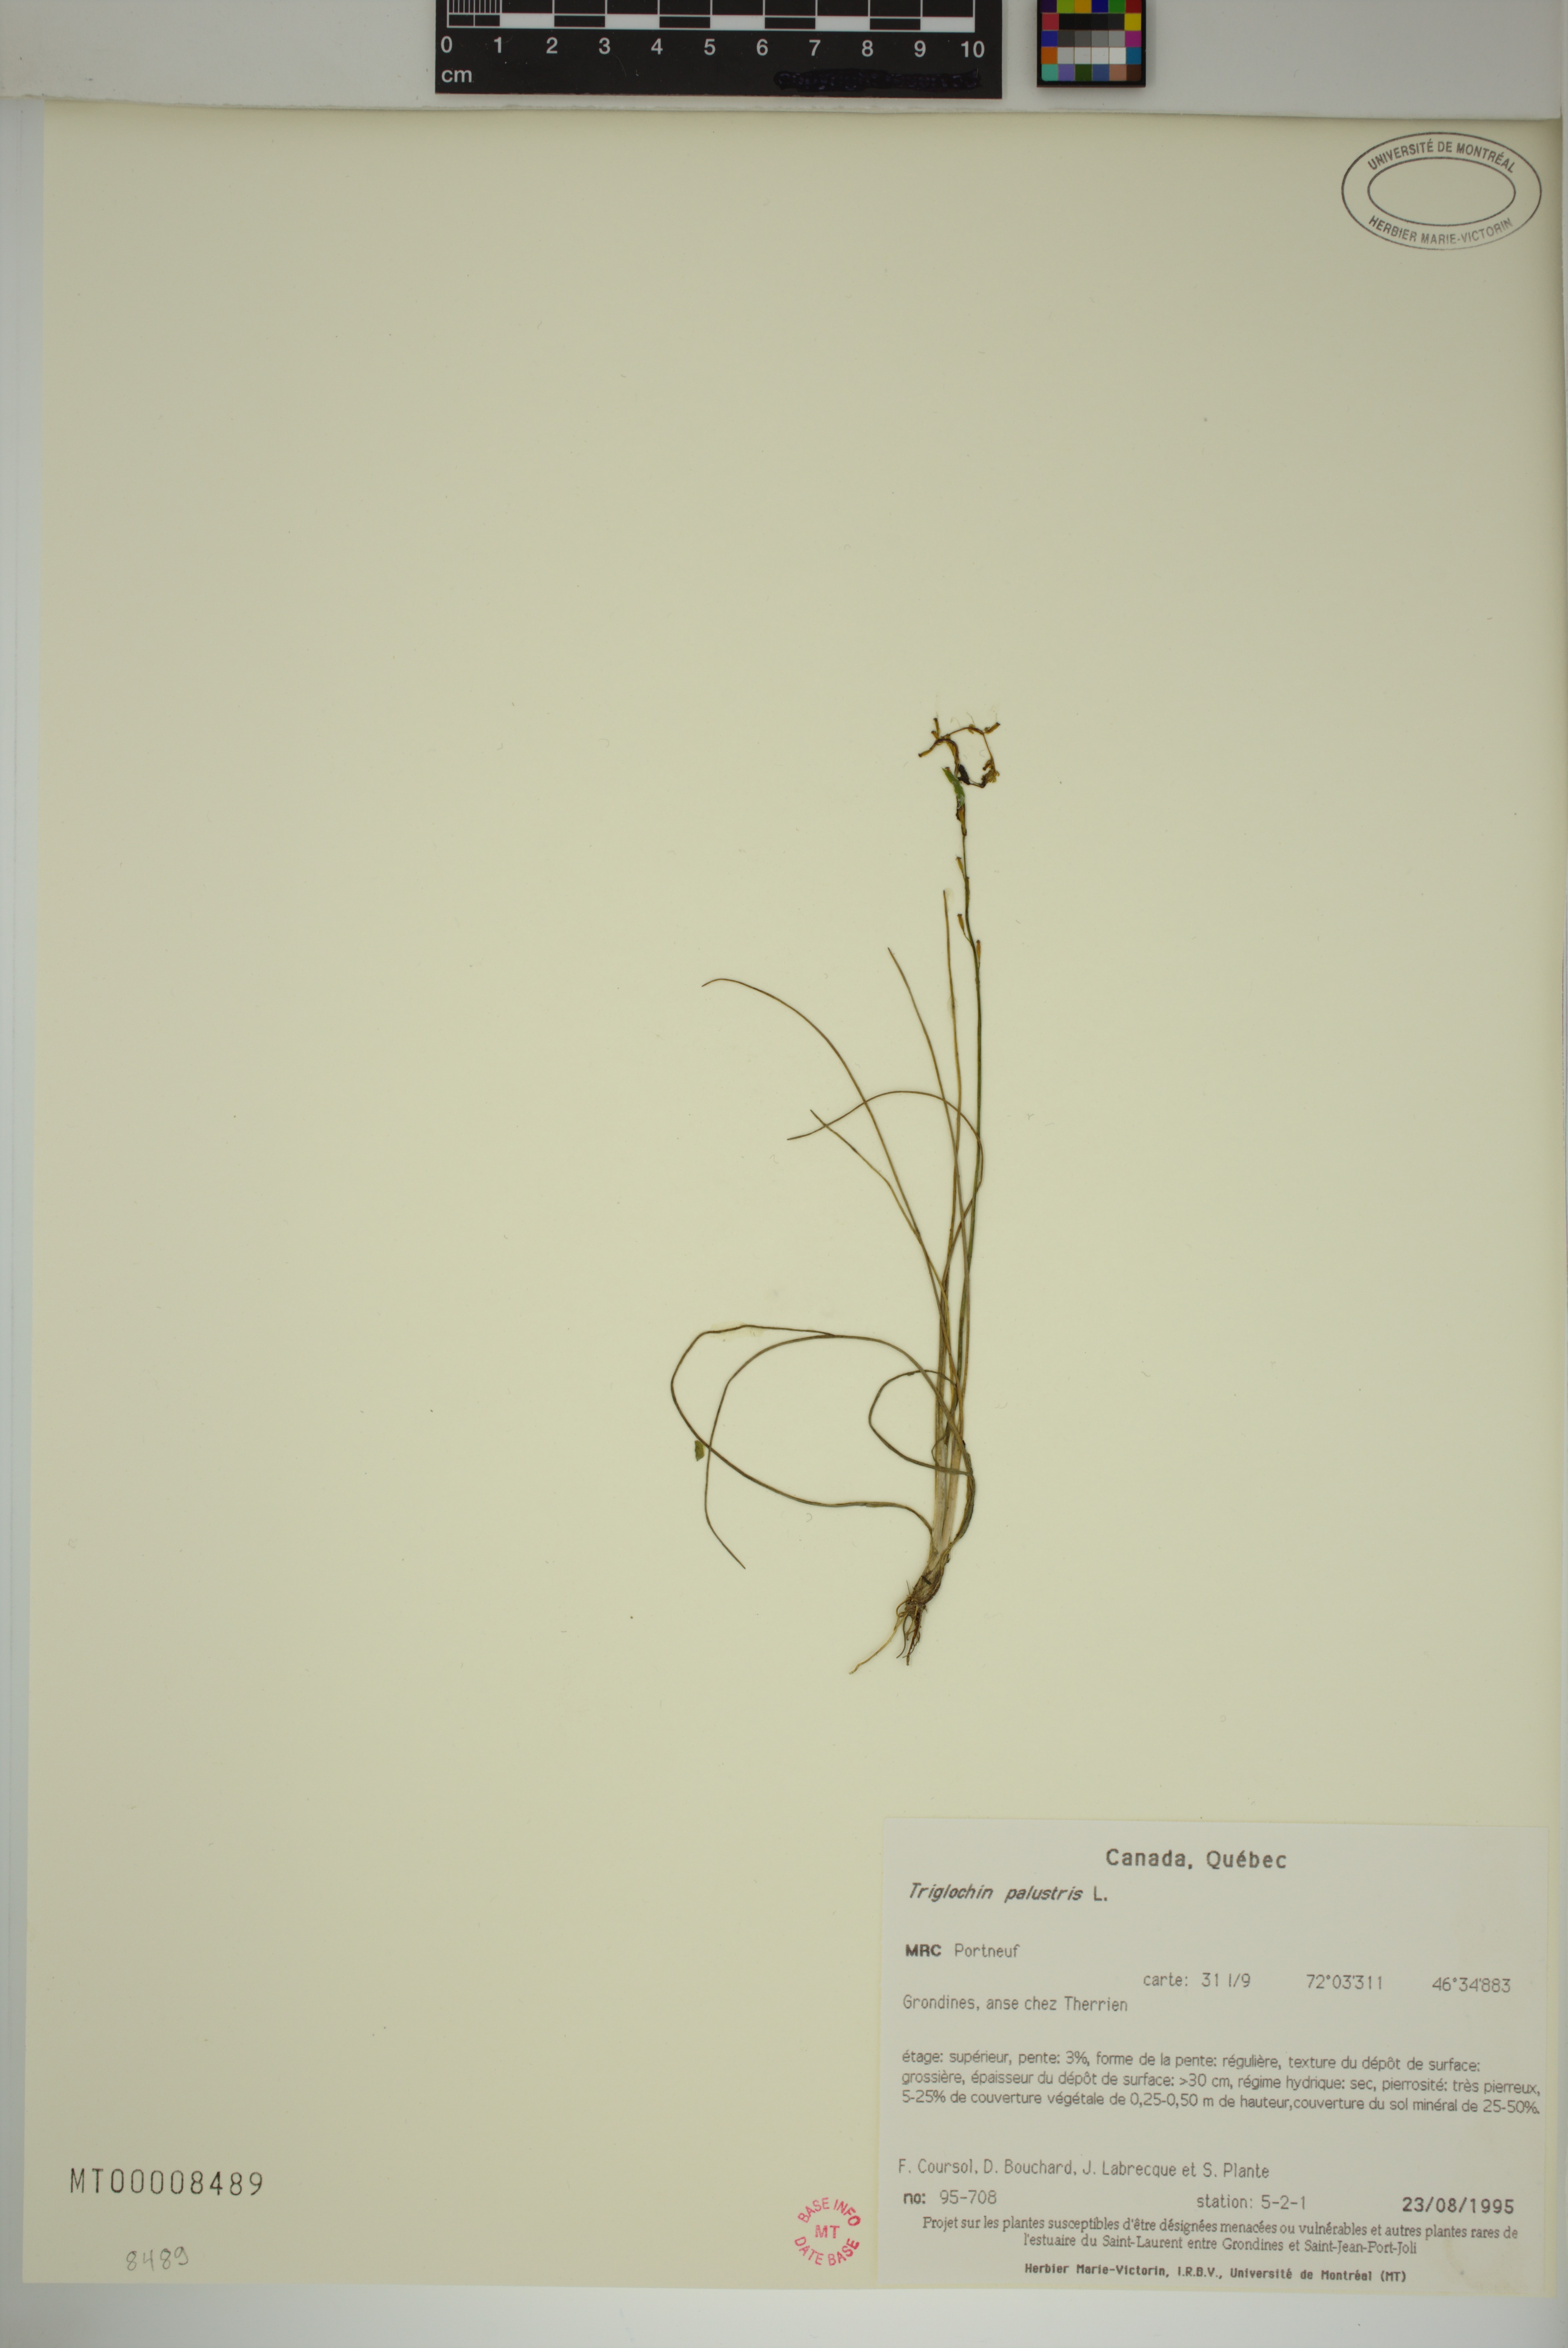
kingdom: Plantae
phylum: Tracheophyta
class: Liliopsida
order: Alismatales
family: Juncaginaceae
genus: Triglochin
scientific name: Triglochin palustris
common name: Marsh arrowgrass
